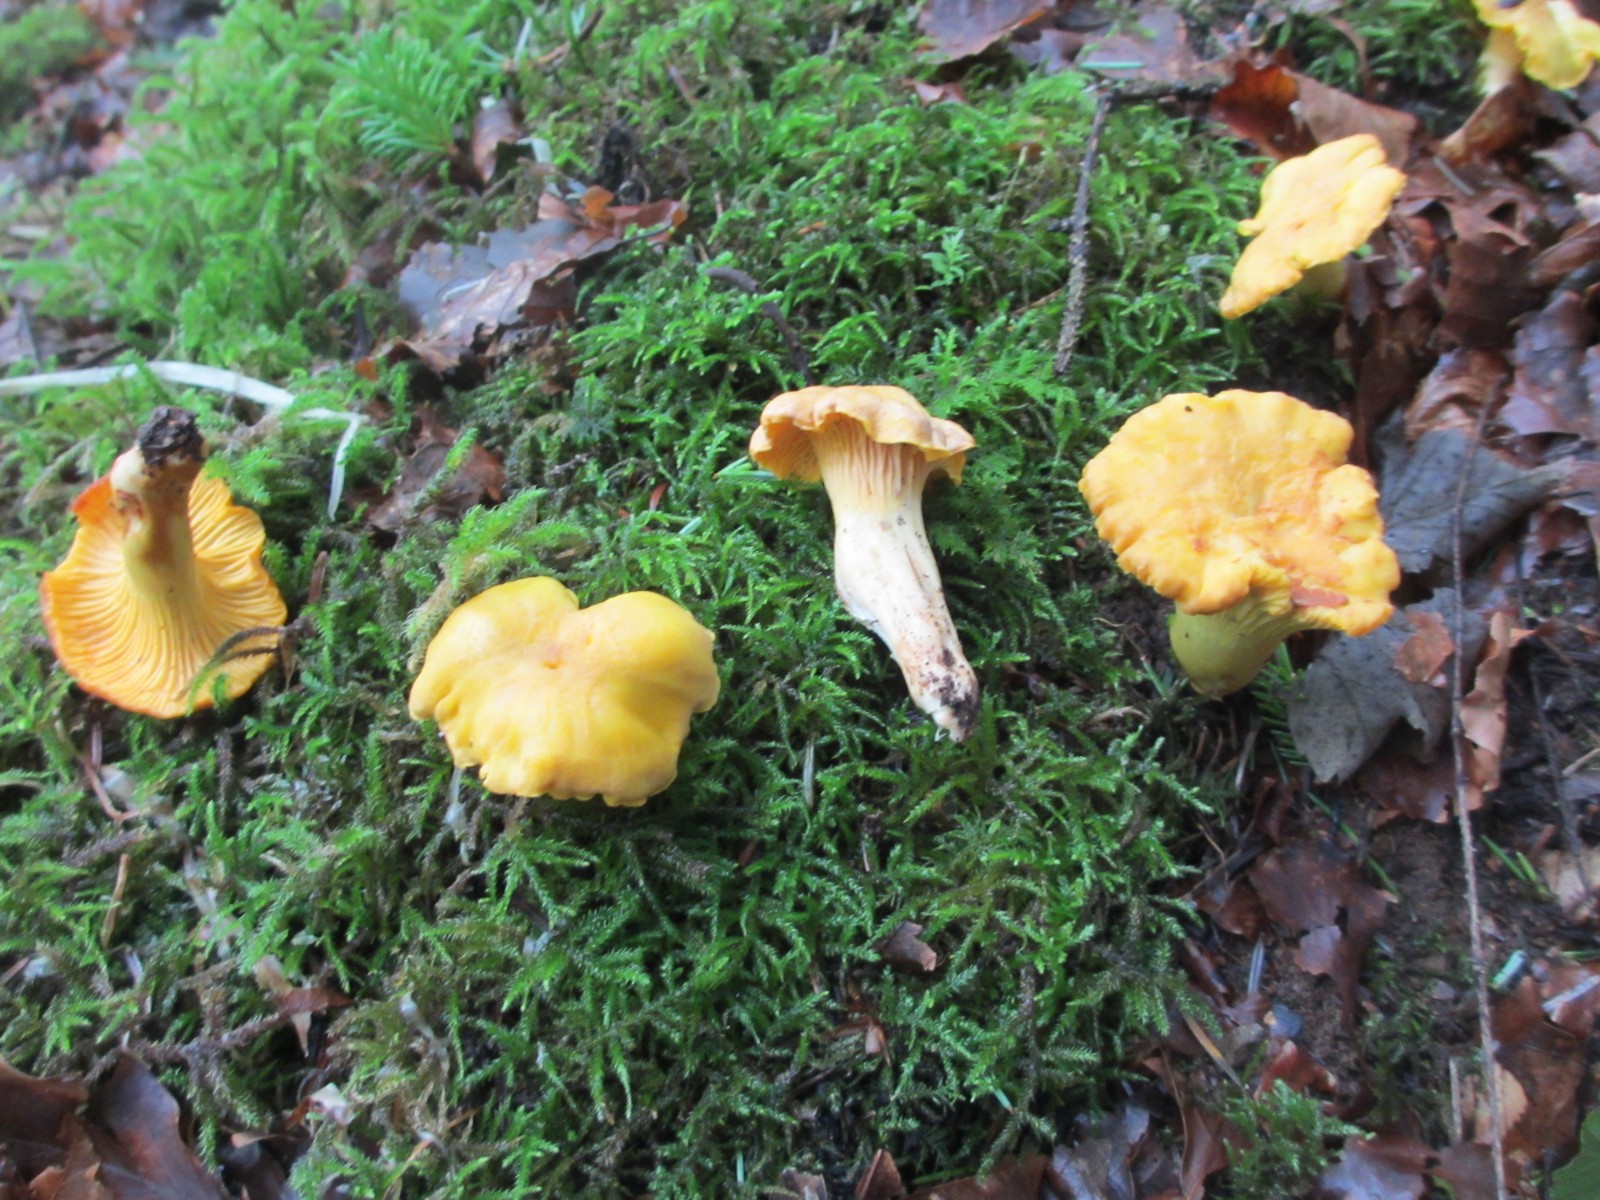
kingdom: Fungi
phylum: Basidiomycota
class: Agaricomycetes
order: Cantharellales
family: Hydnaceae
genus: Cantharellus
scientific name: Cantharellus cibarius
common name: almindelig kantarel
